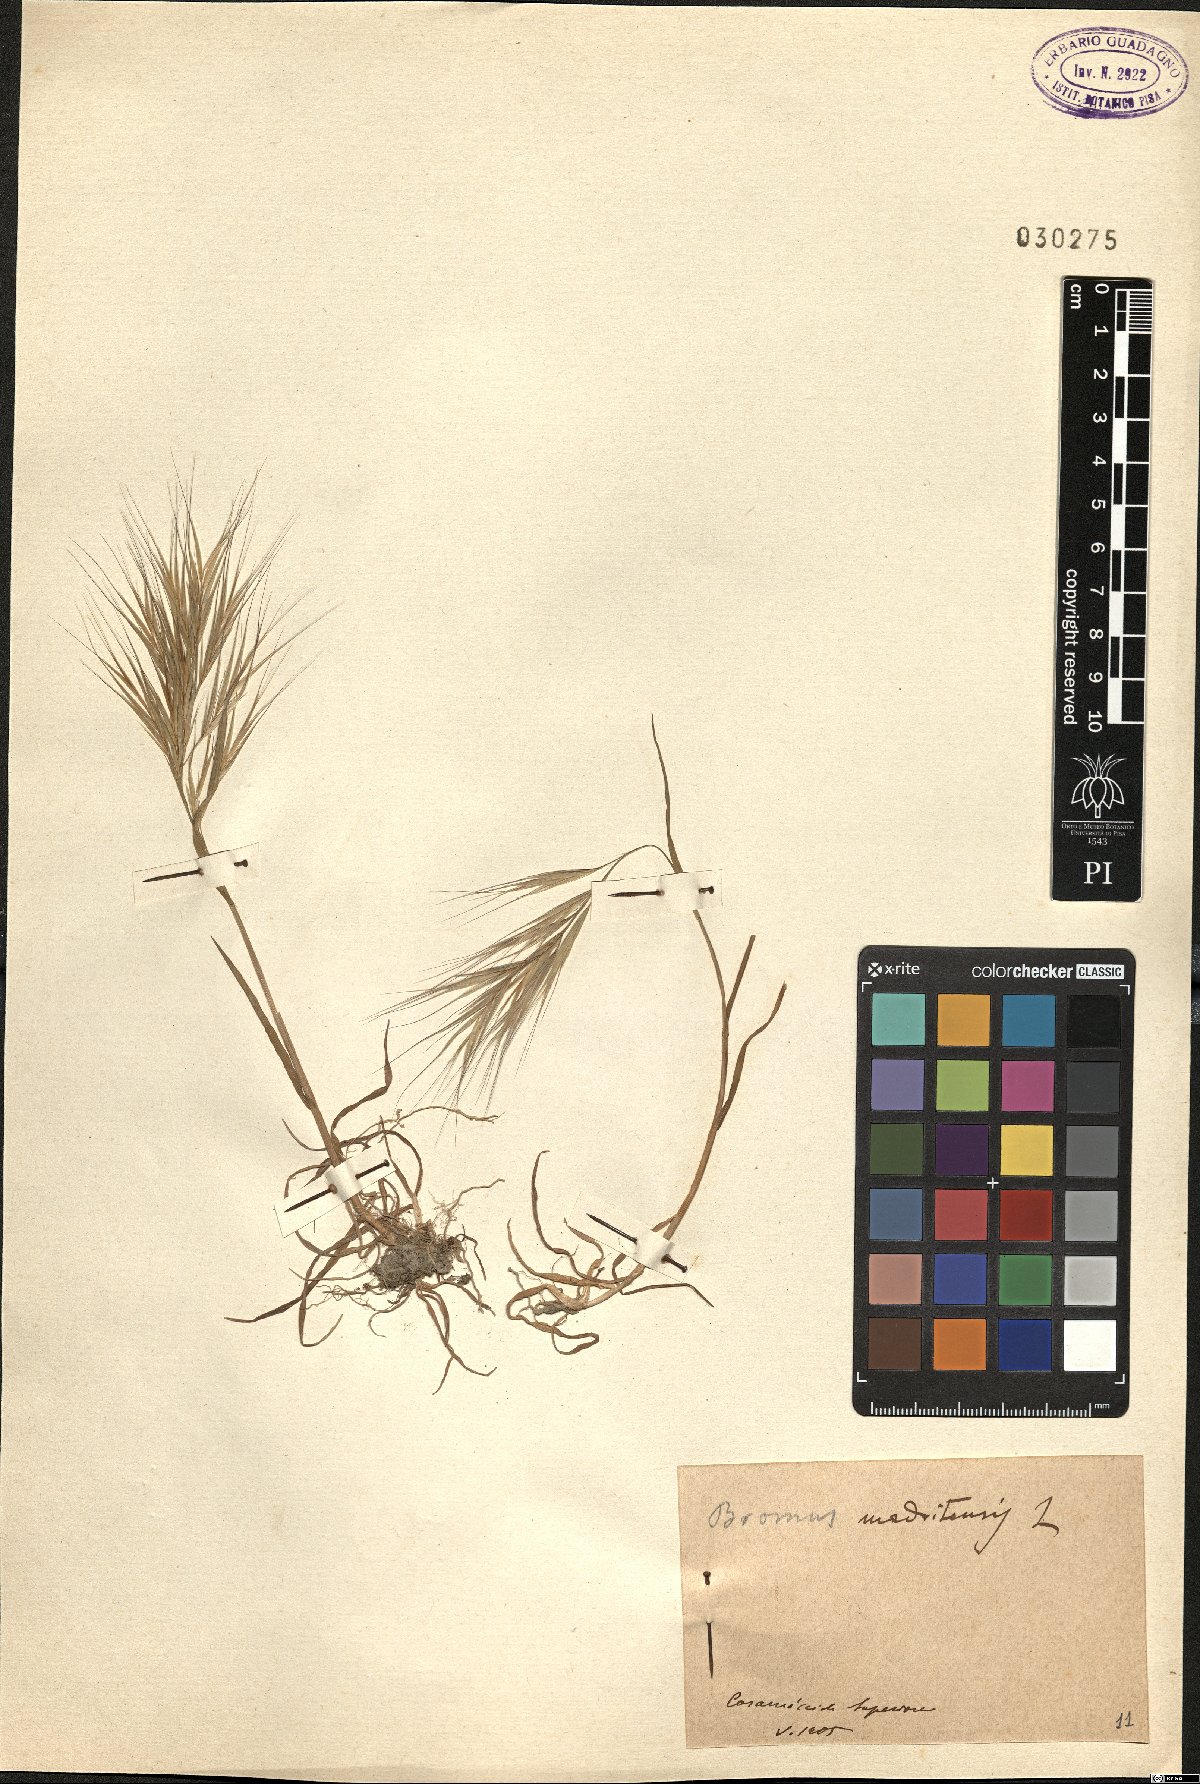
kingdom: Plantae
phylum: Tracheophyta
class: Liliopsida
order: Poales
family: Poaceae
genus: Bromus
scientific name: Bromus madritensis
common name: Compact brome
